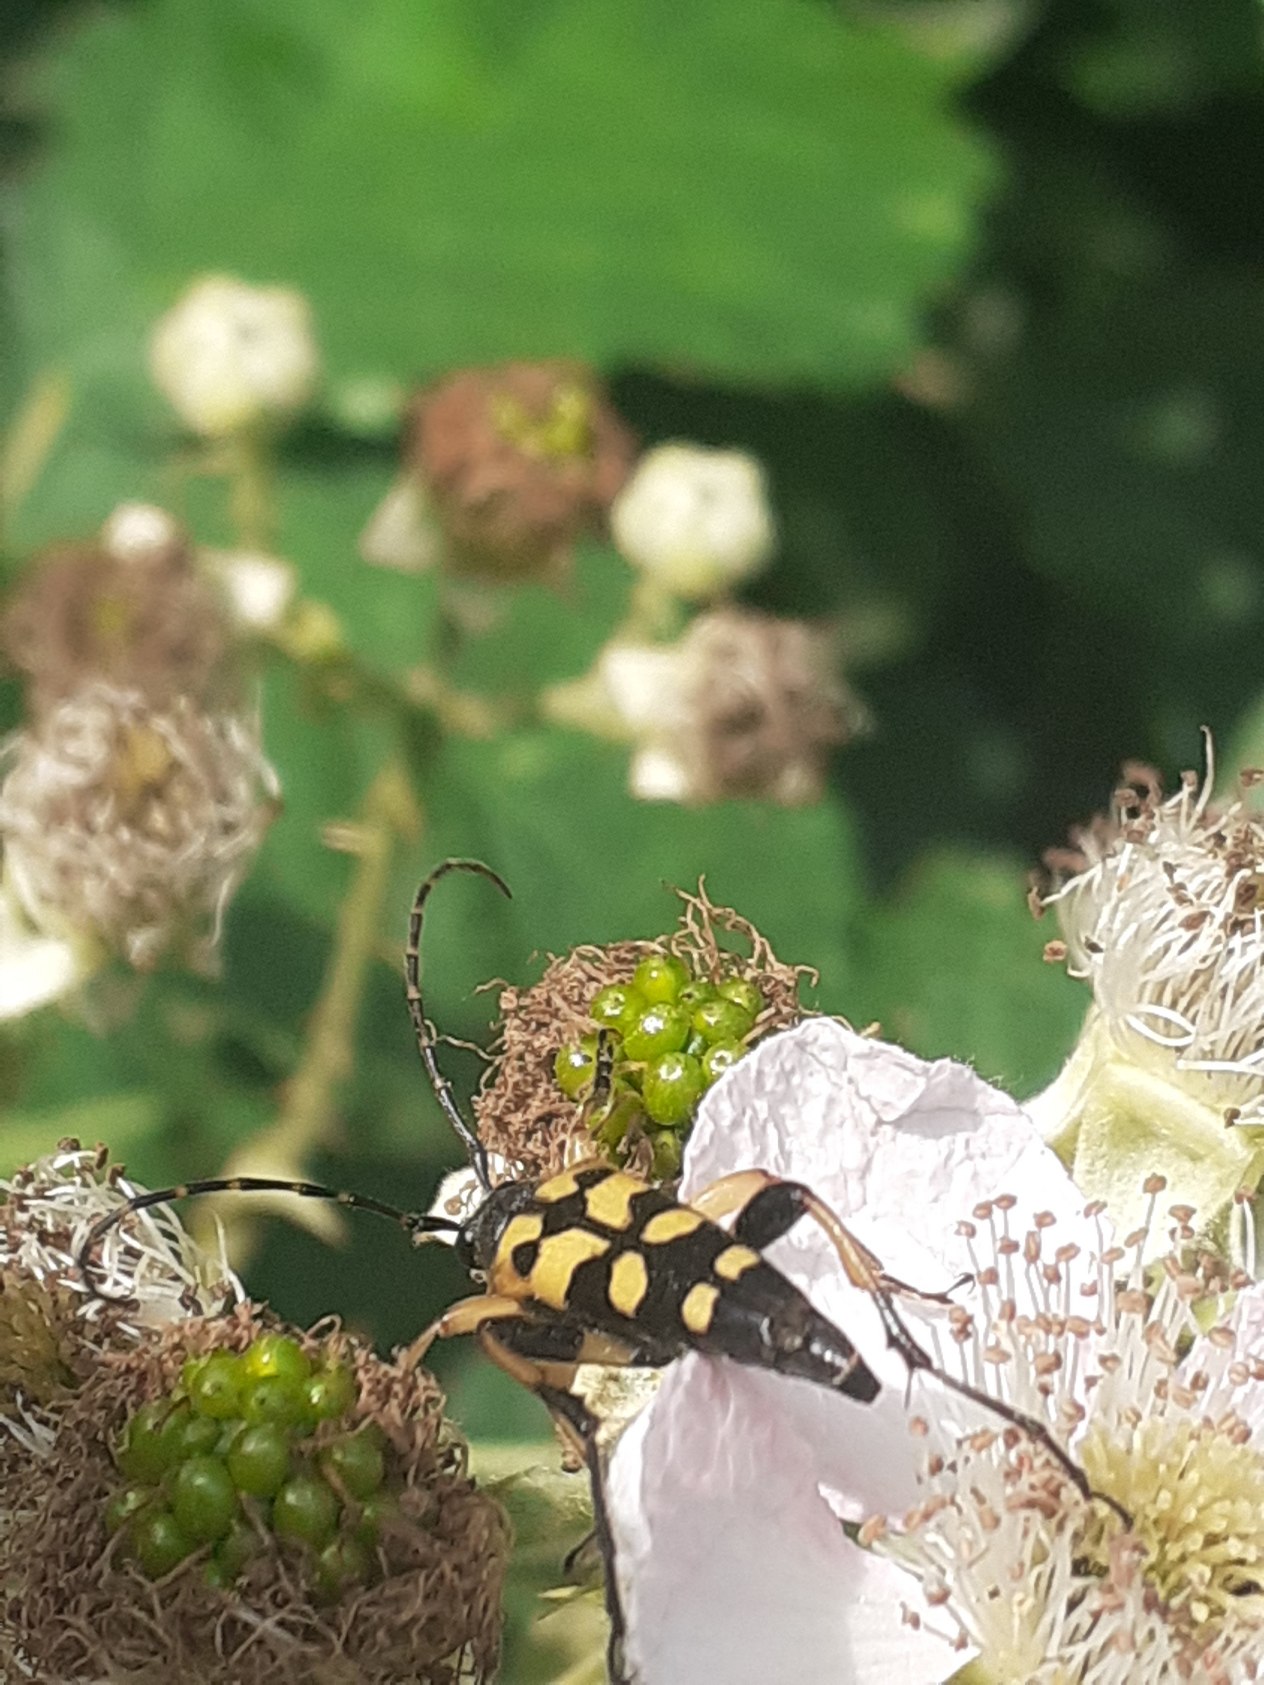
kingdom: Animalia
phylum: Arthropoda
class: Insecta
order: Coleoptera
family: Cerambycidae
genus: Rutpela
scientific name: Rutpela maculata
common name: Sydlig blomsterbuk
